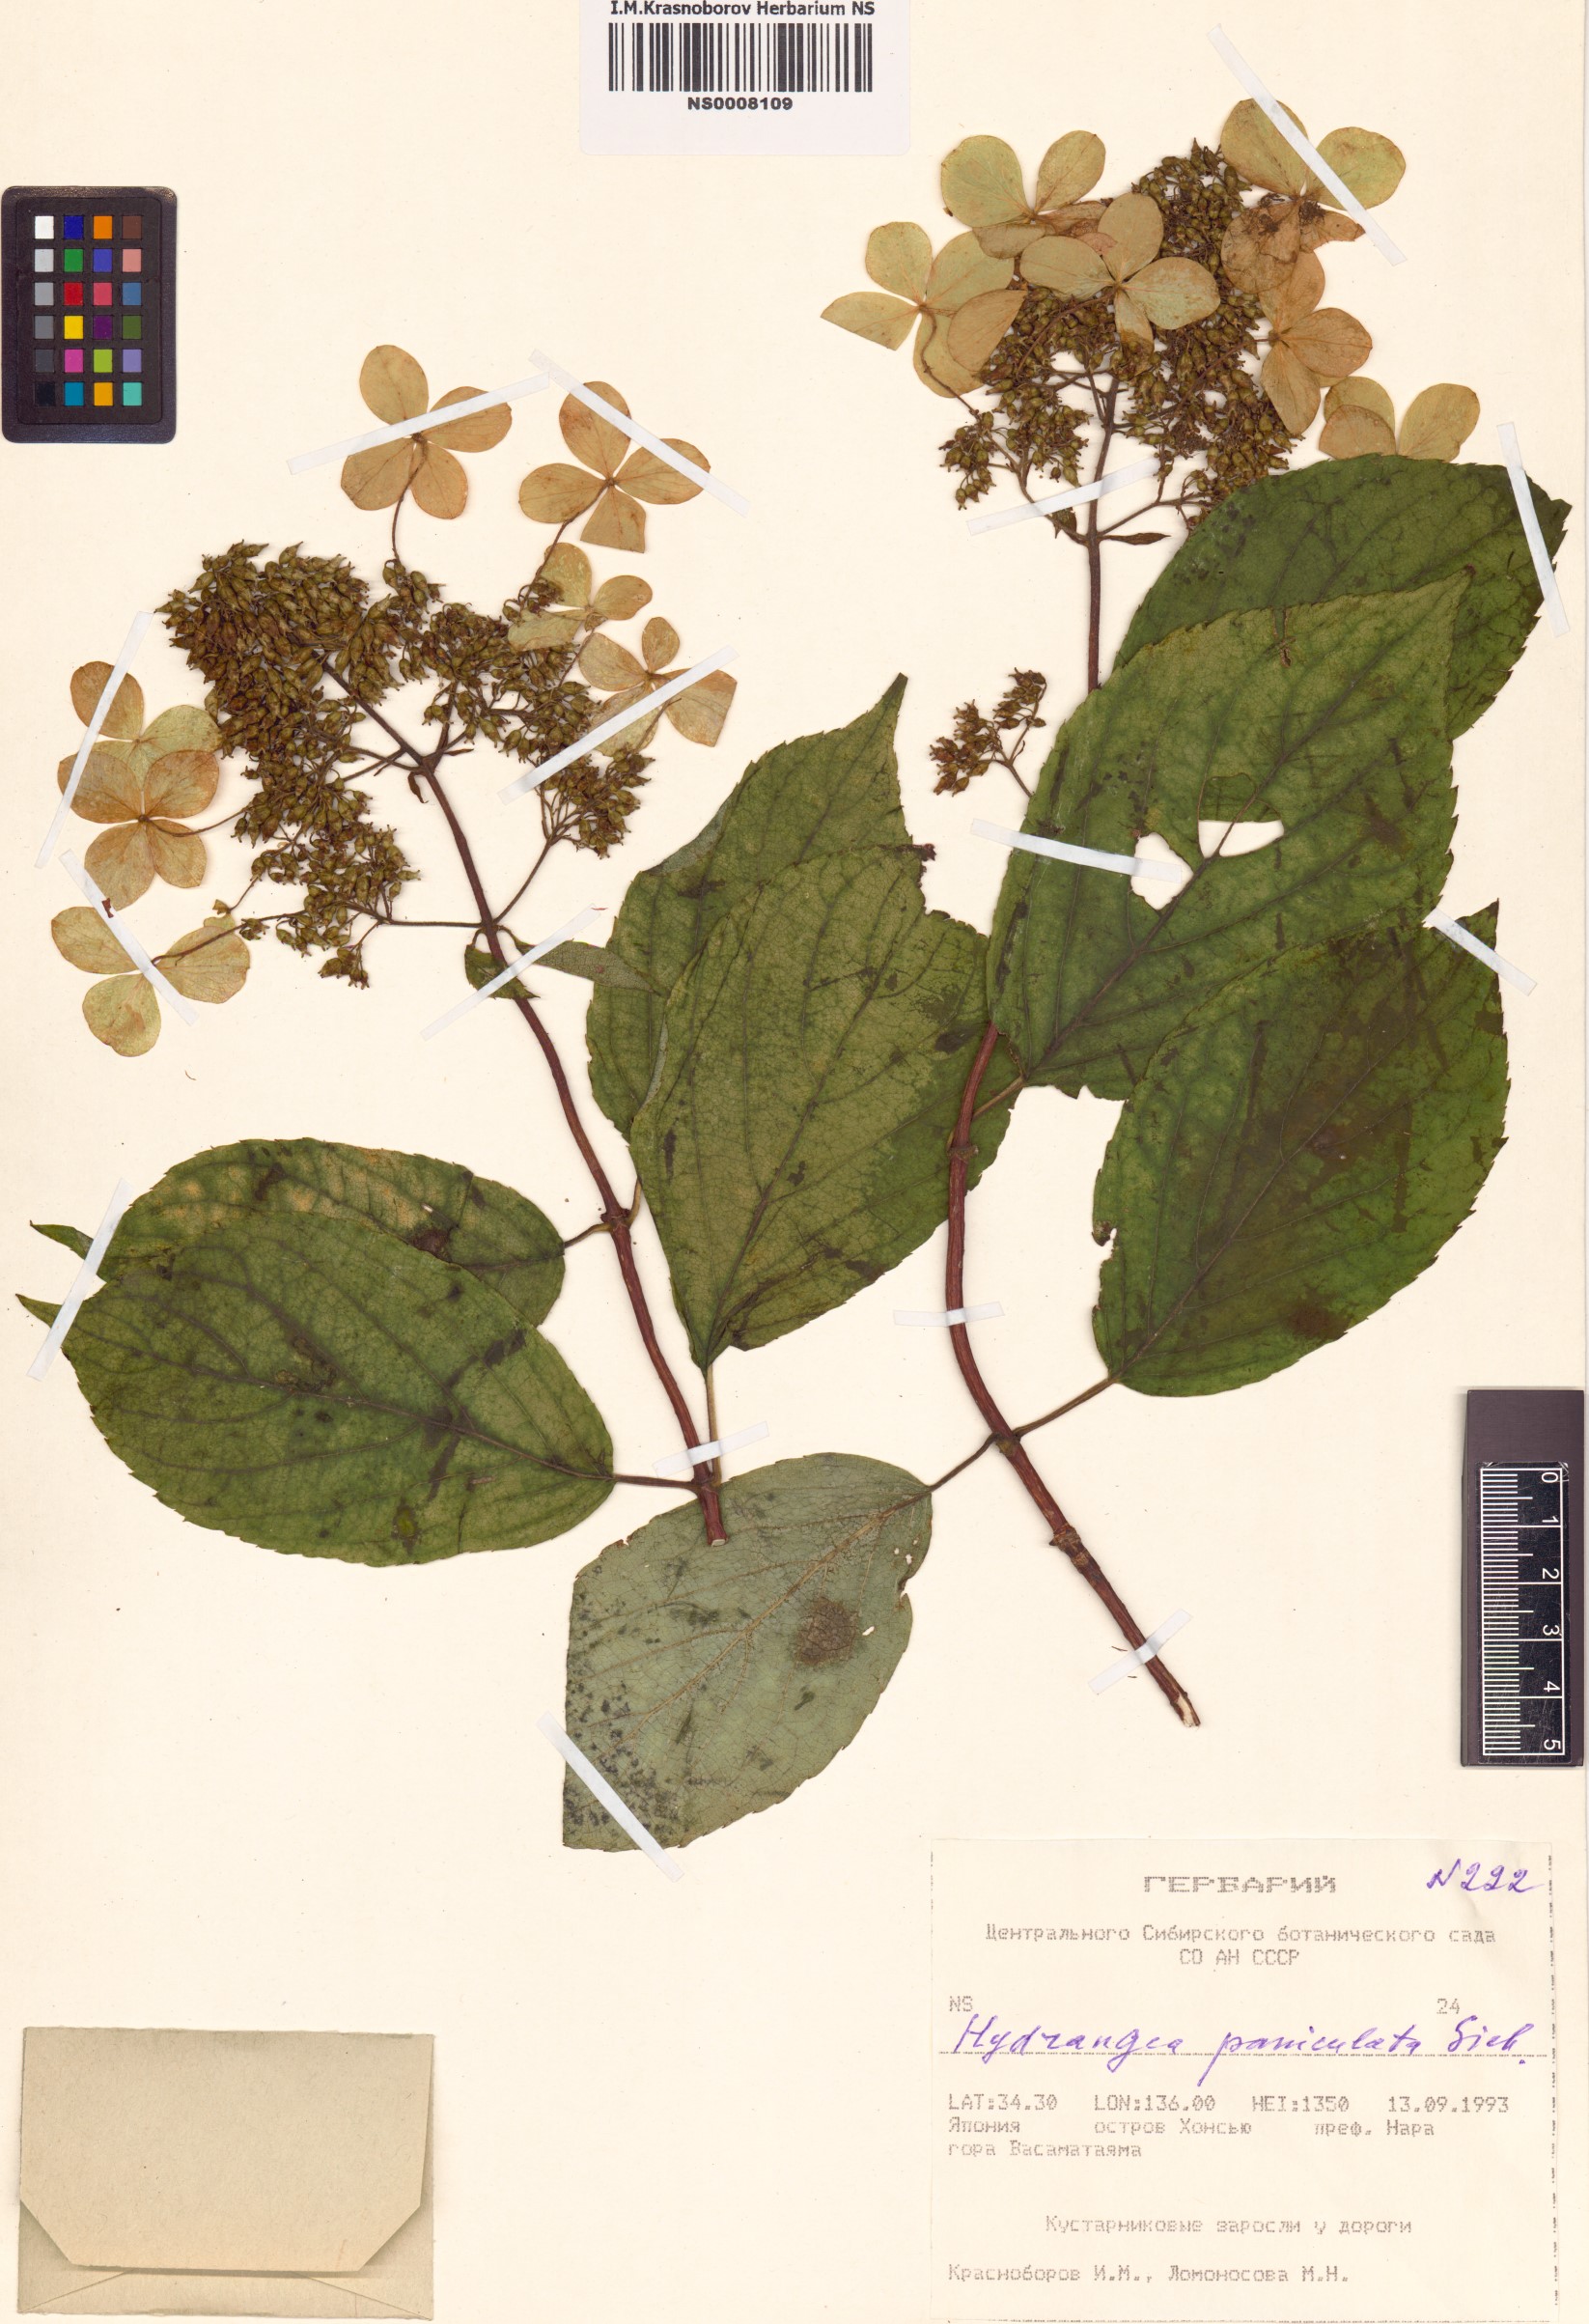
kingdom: Plantae
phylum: Tracheophyta
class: Magnoliopsida
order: Cornales
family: Hydrangeaceae
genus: Hydrangea
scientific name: Hydrangea paniculata
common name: Panicled hydrangea
